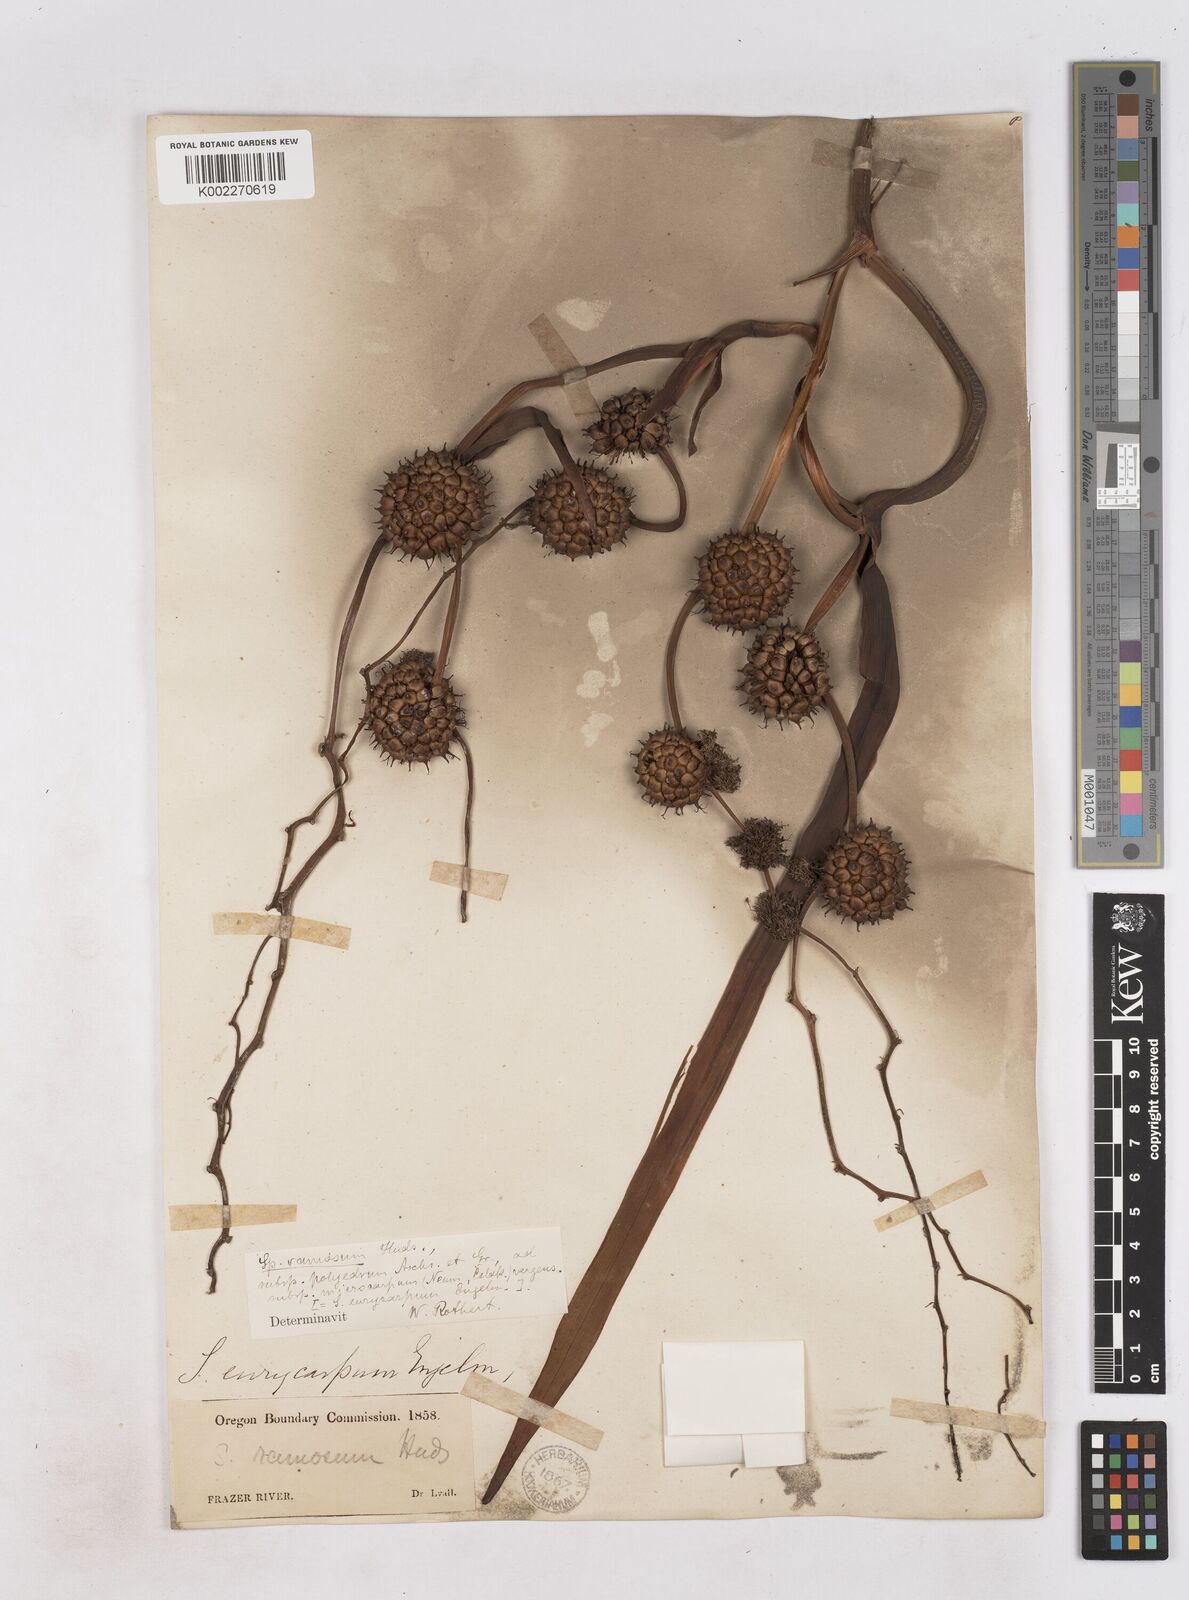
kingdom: Plantae
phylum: Tracheophyta
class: Liliopsida
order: Poales
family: Typhaceae
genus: Sparganium
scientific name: Sparganium eurycarpum
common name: Broad-fruited burreed
